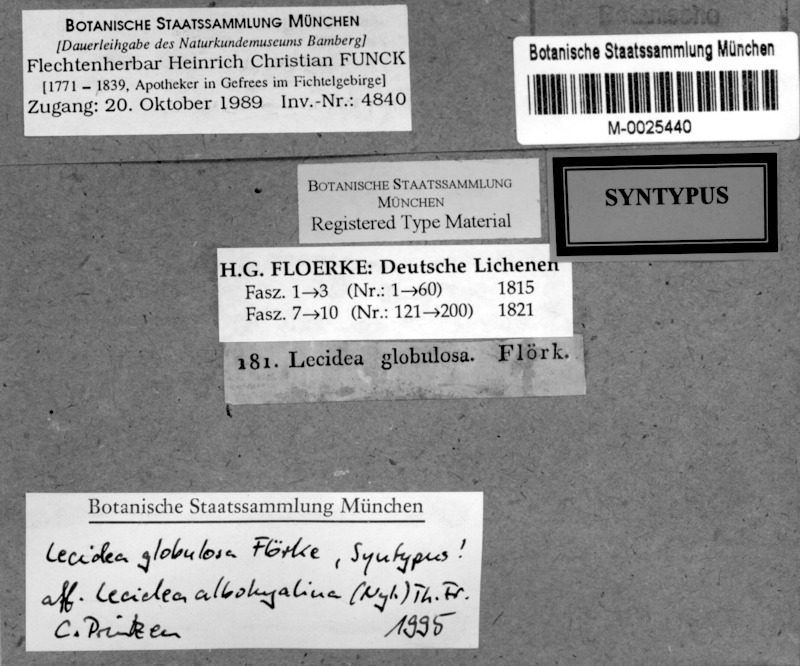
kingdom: Fungi
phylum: Ascomycota
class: Lecanoromycetes
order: Lecanorales
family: Ramalinaceae
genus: Biatora
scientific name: Biatora globulosa
